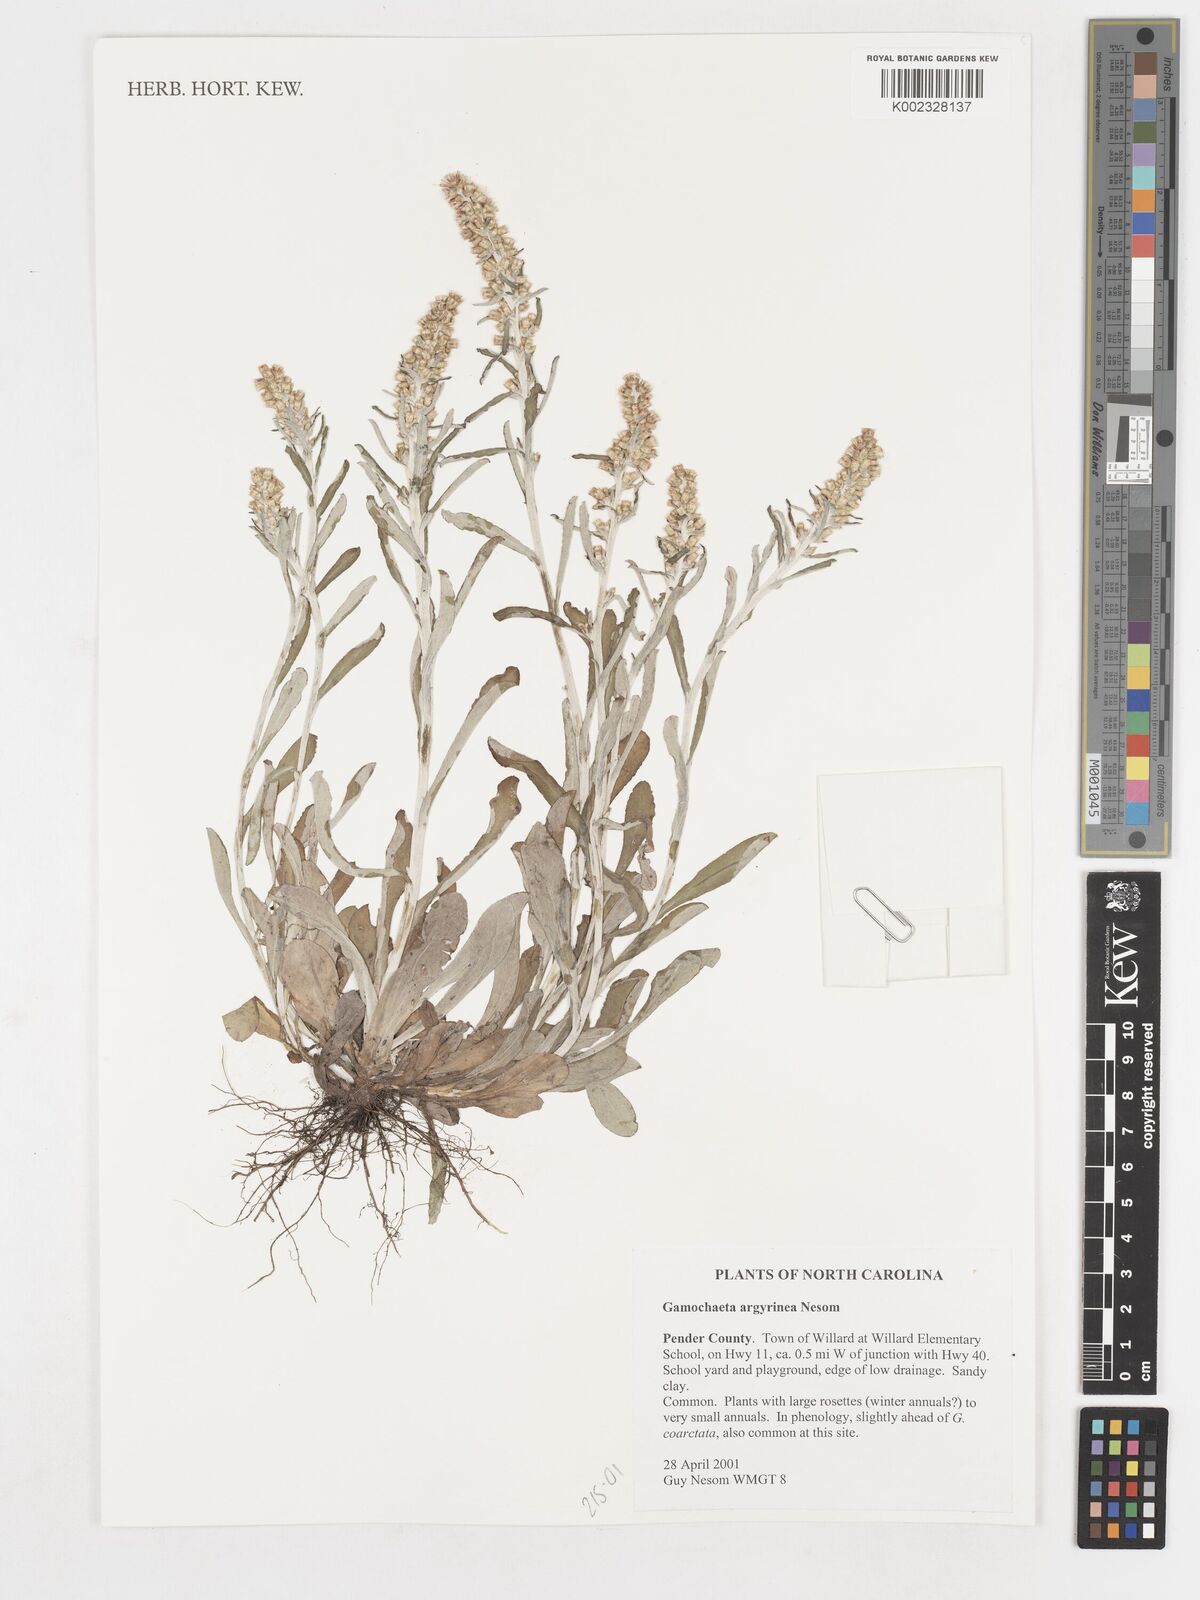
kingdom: Plantae
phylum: Tracheophyta
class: Magnoliopsida
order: Asterales
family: Asteraceae
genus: Gamochaeta
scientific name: Gamochaeta argyrinea
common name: Silvery cudweed
